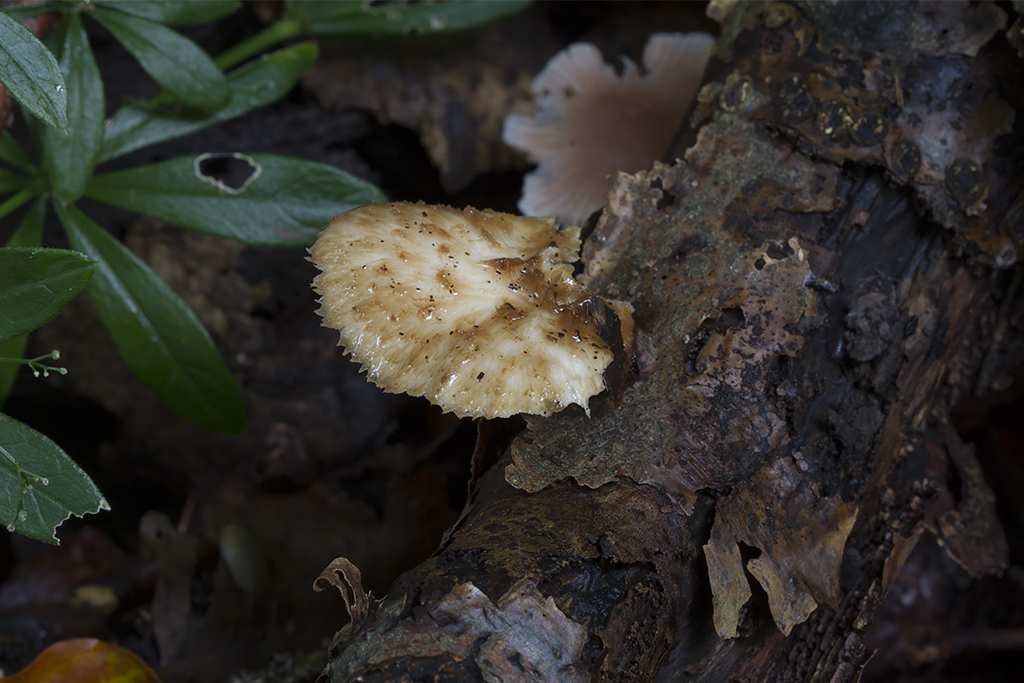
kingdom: Fungi
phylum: Basidiomycota
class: Agaricomycetes
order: Polyporales
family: Polyporaceae
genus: Polyporus
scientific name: Polyporus tuberaster
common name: knoldet stilkporesvamp
